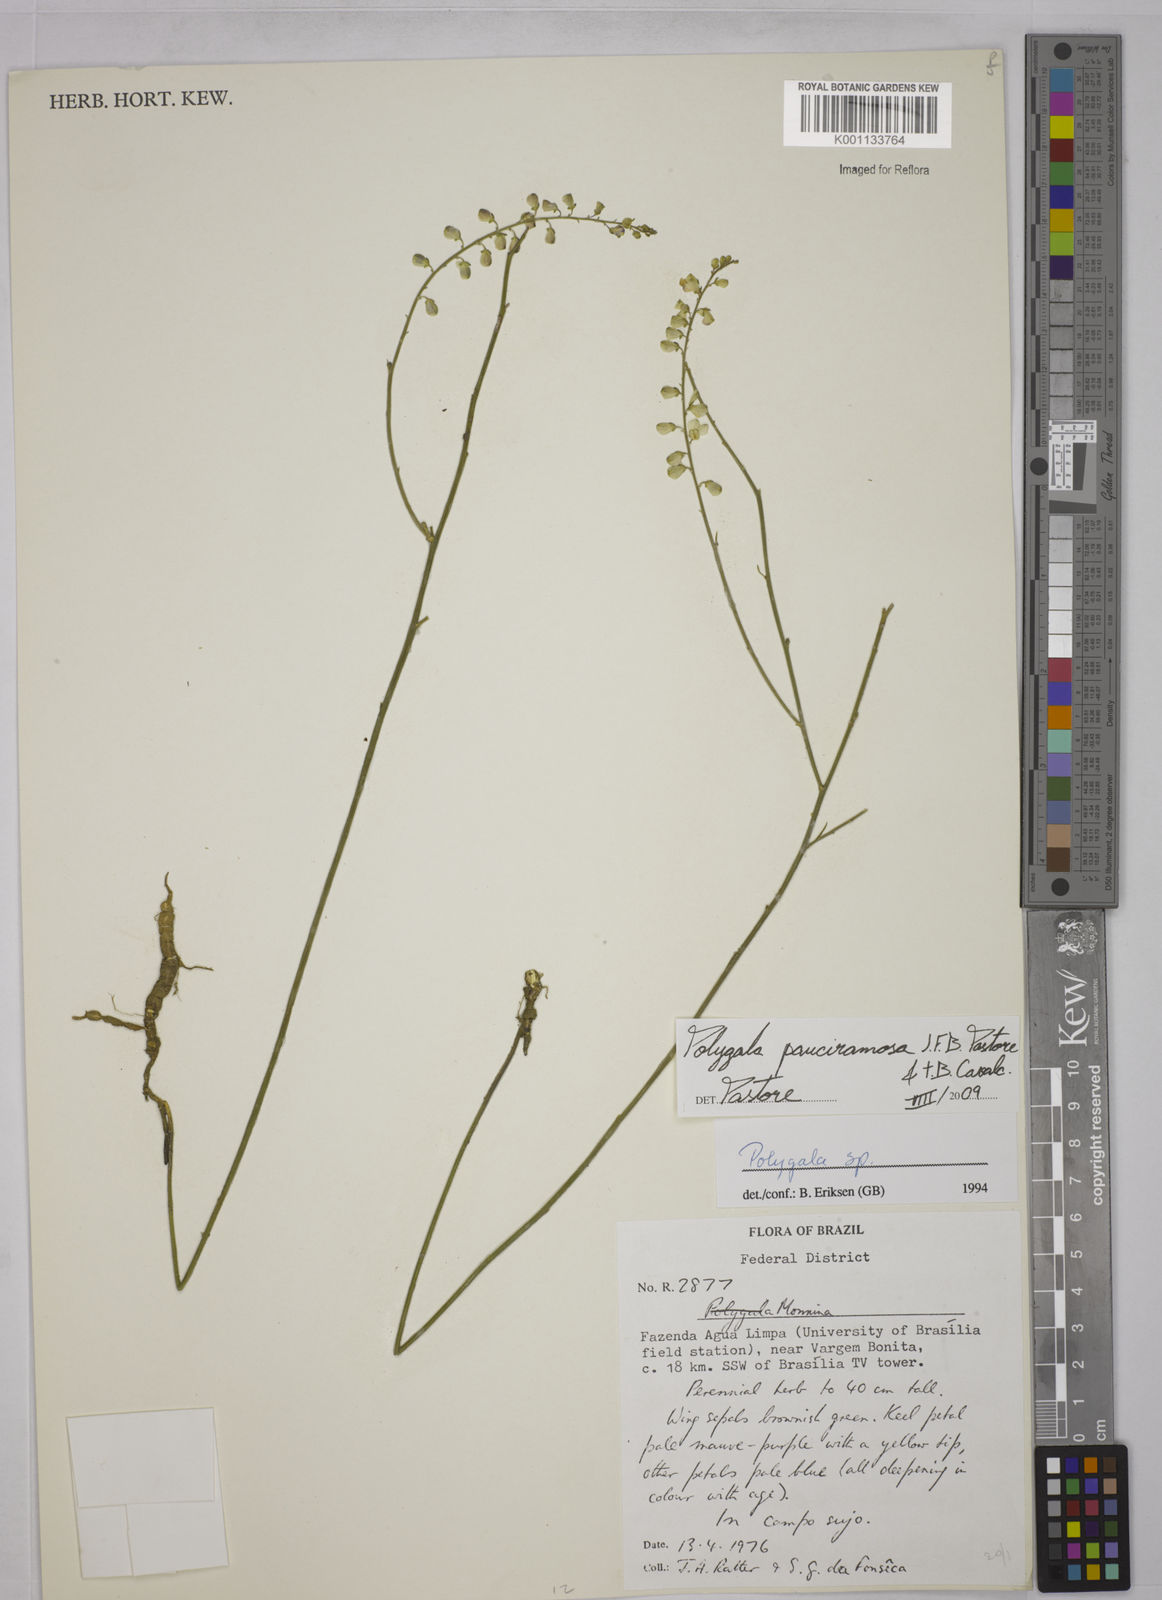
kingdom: Plantae
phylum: Tracheophyta
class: Magnoliopsida
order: Fabales
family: Polygalaceae
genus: Asemeia
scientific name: Asemeia lindmaniana
